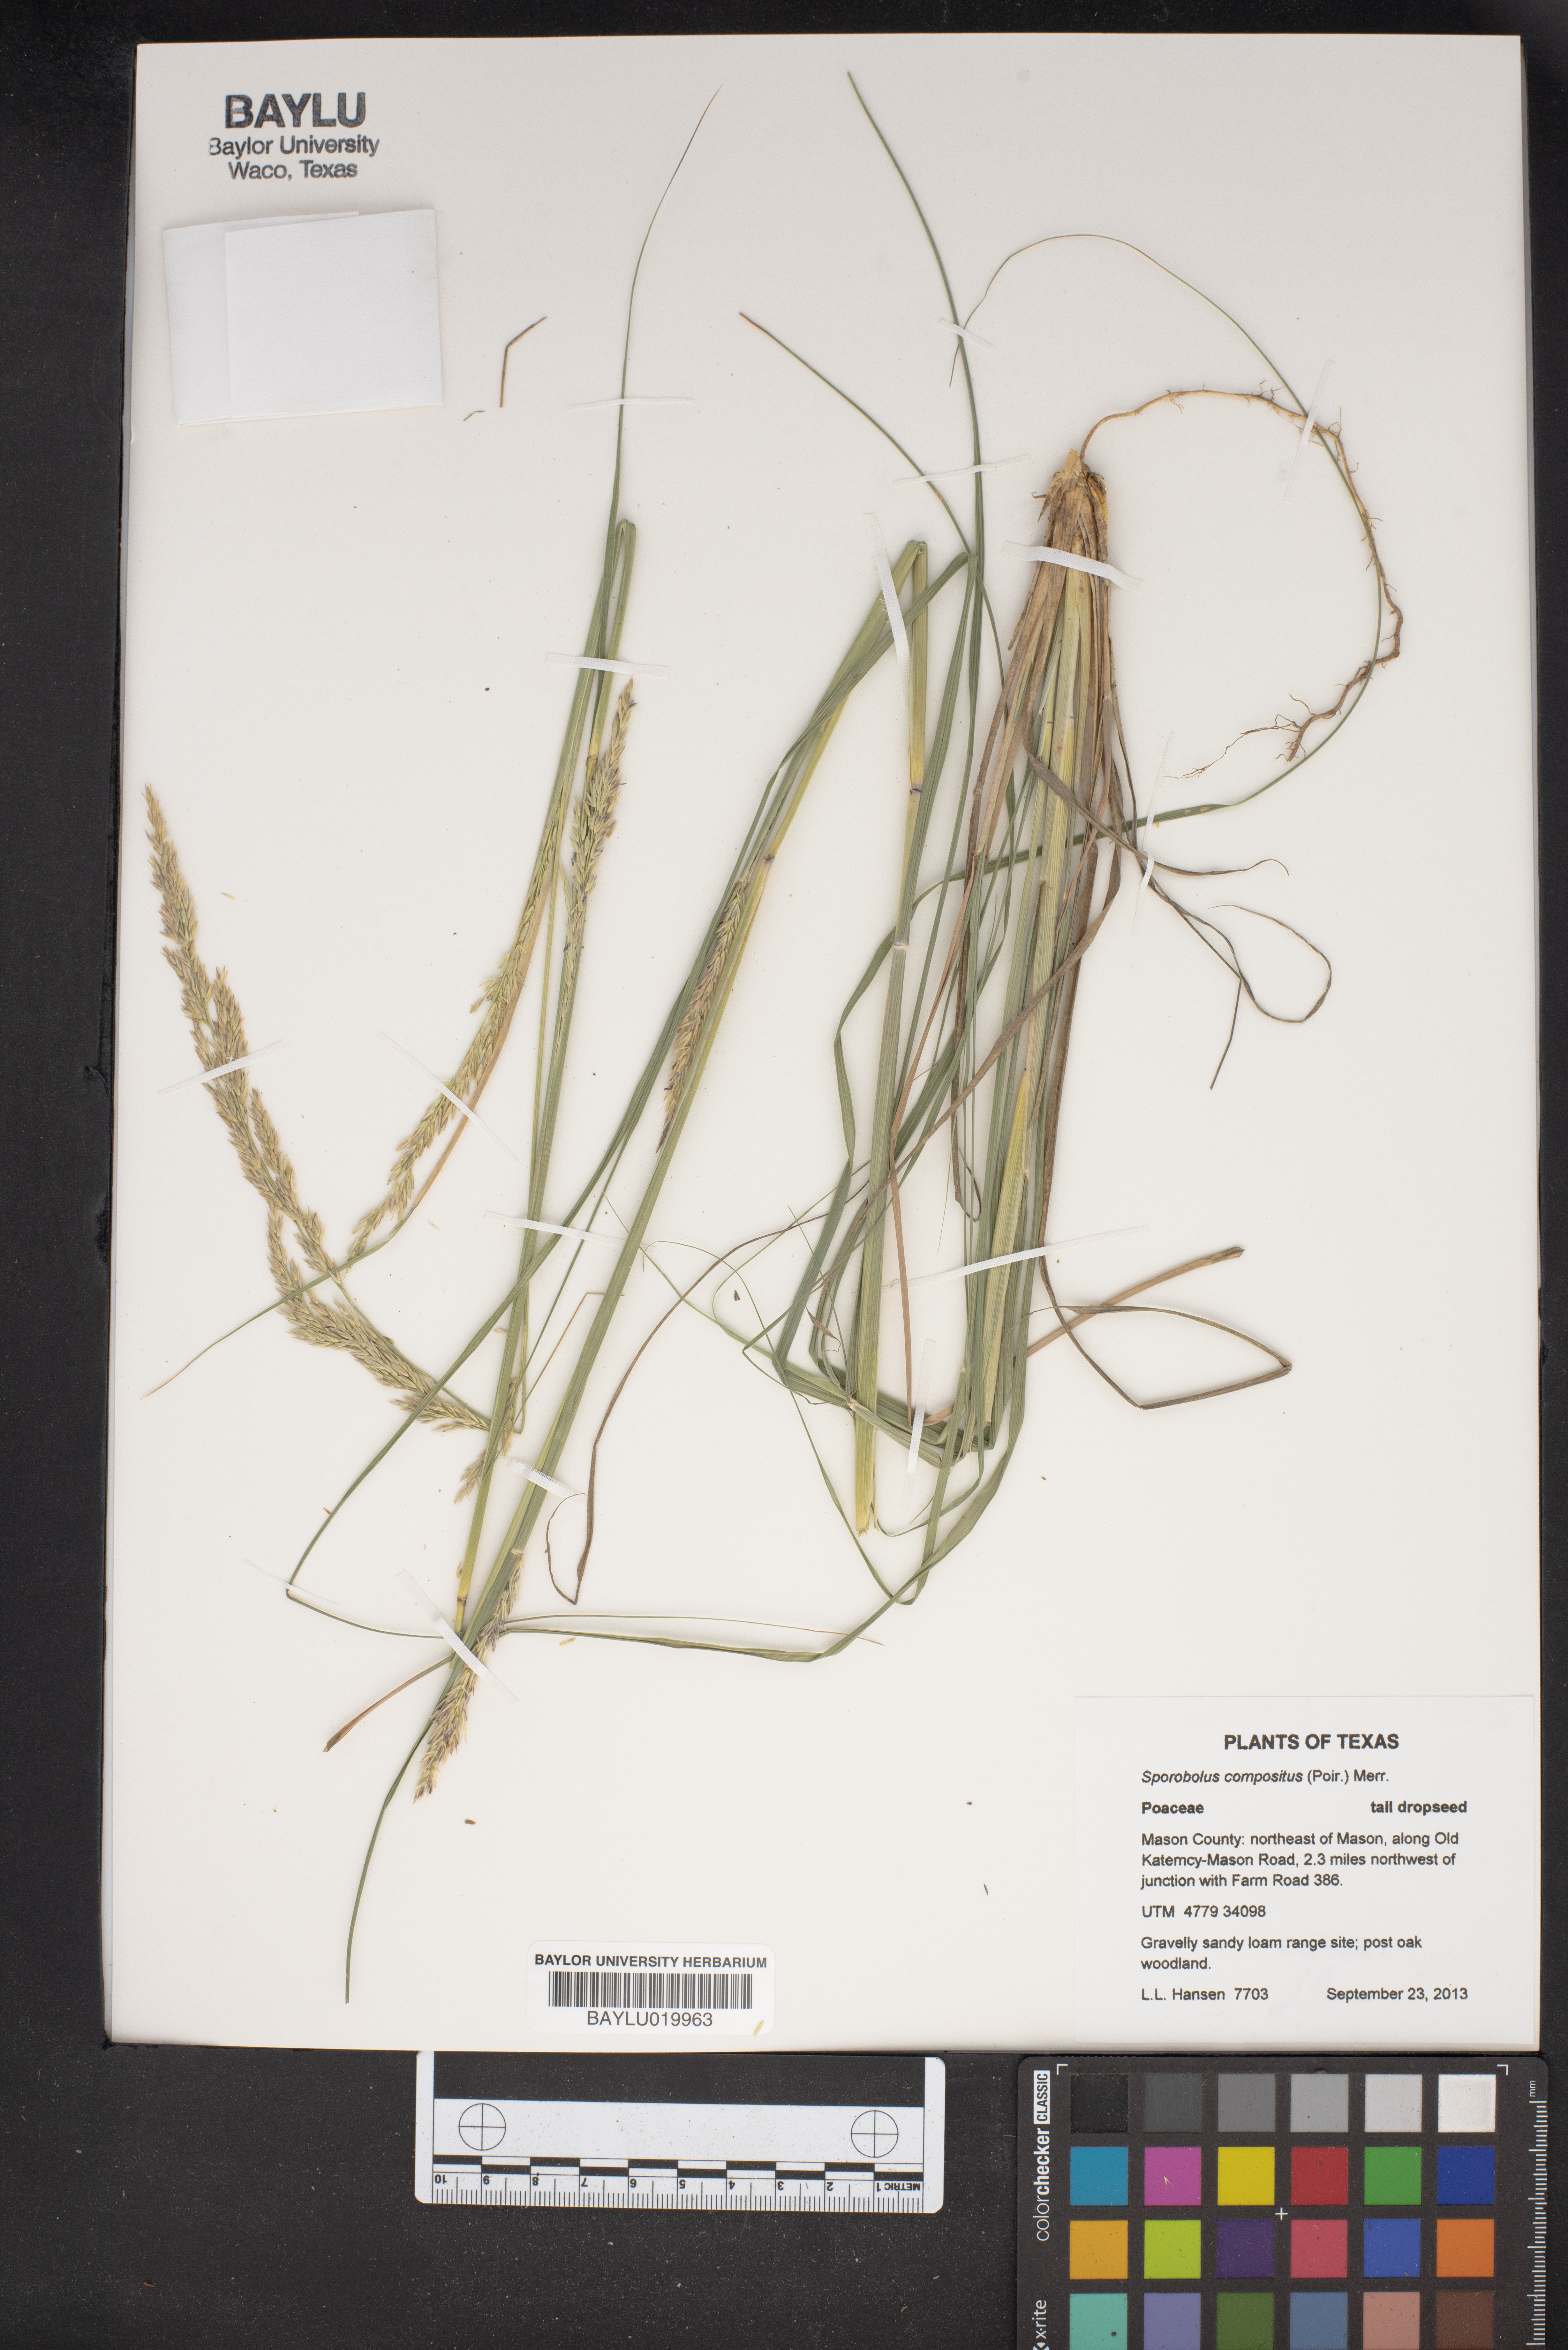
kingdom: Plantae
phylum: Tracheophyta
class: Liliopsida
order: Poales
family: Poaceae
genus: Sporobolus
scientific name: Sporobolus compositus
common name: Rough dropseed
